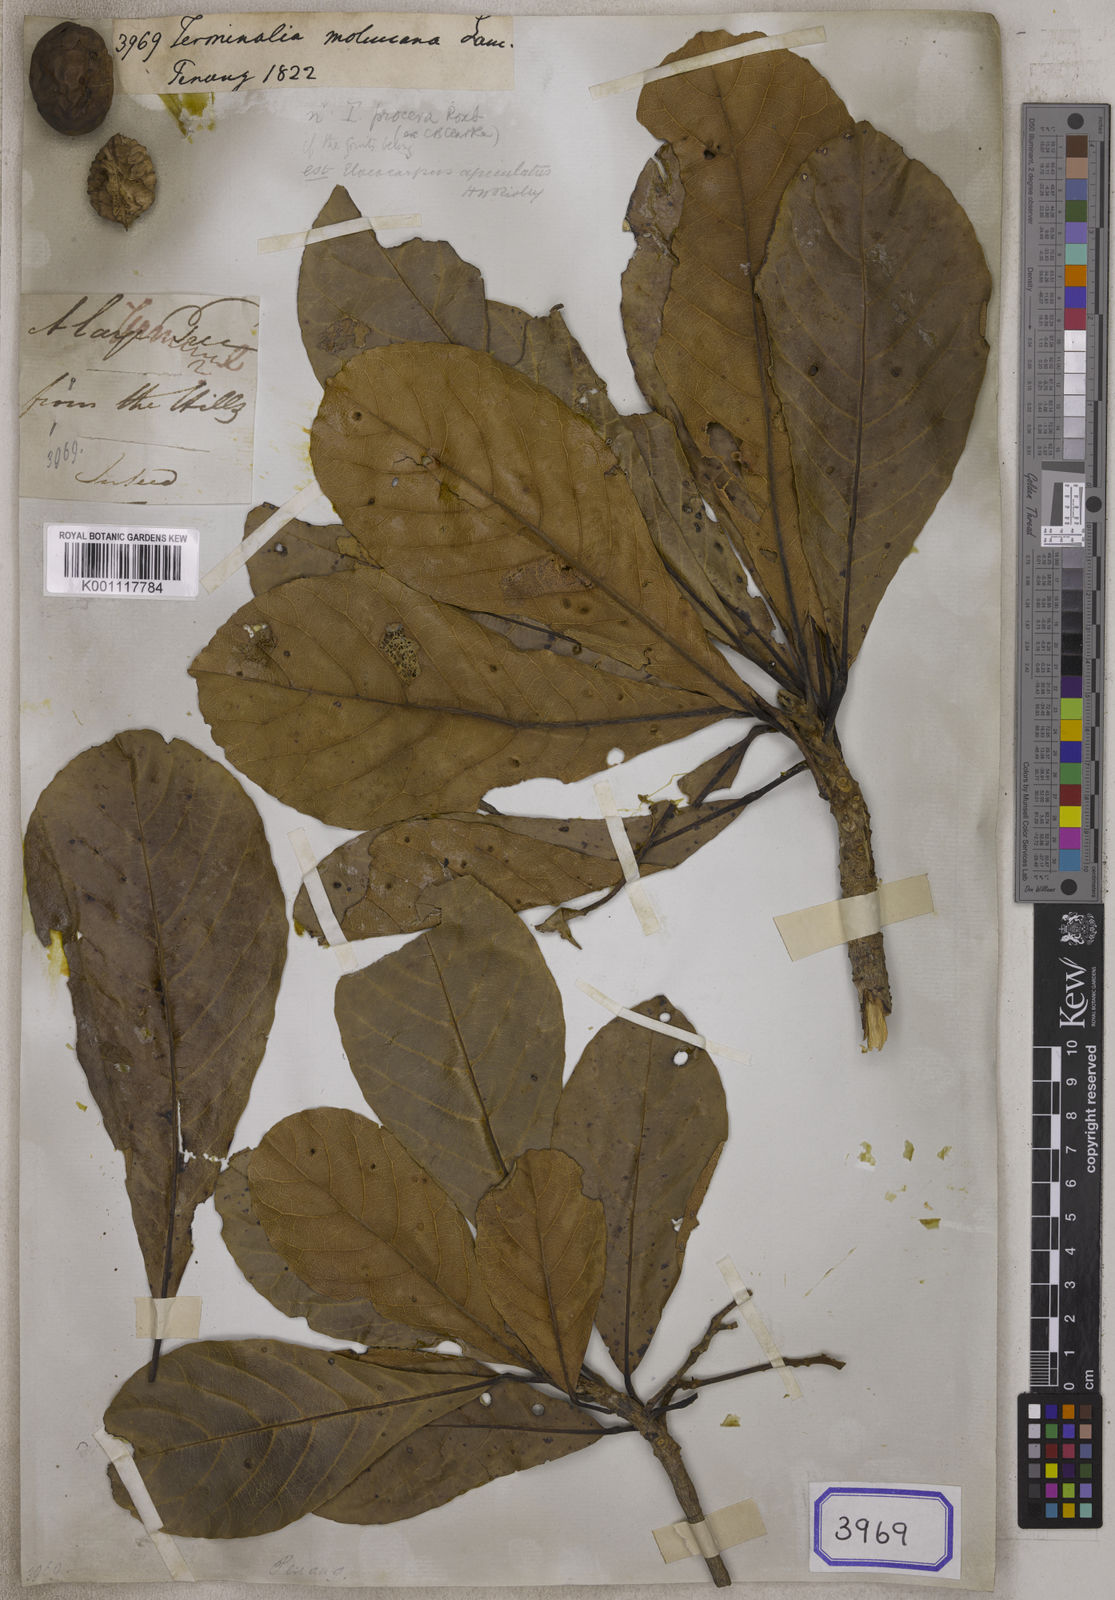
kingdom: Plantae
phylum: Tracheophyta
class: Magnoliopsida
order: Myrtales
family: Combretaceae
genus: Terminalia
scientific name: Terminalia
